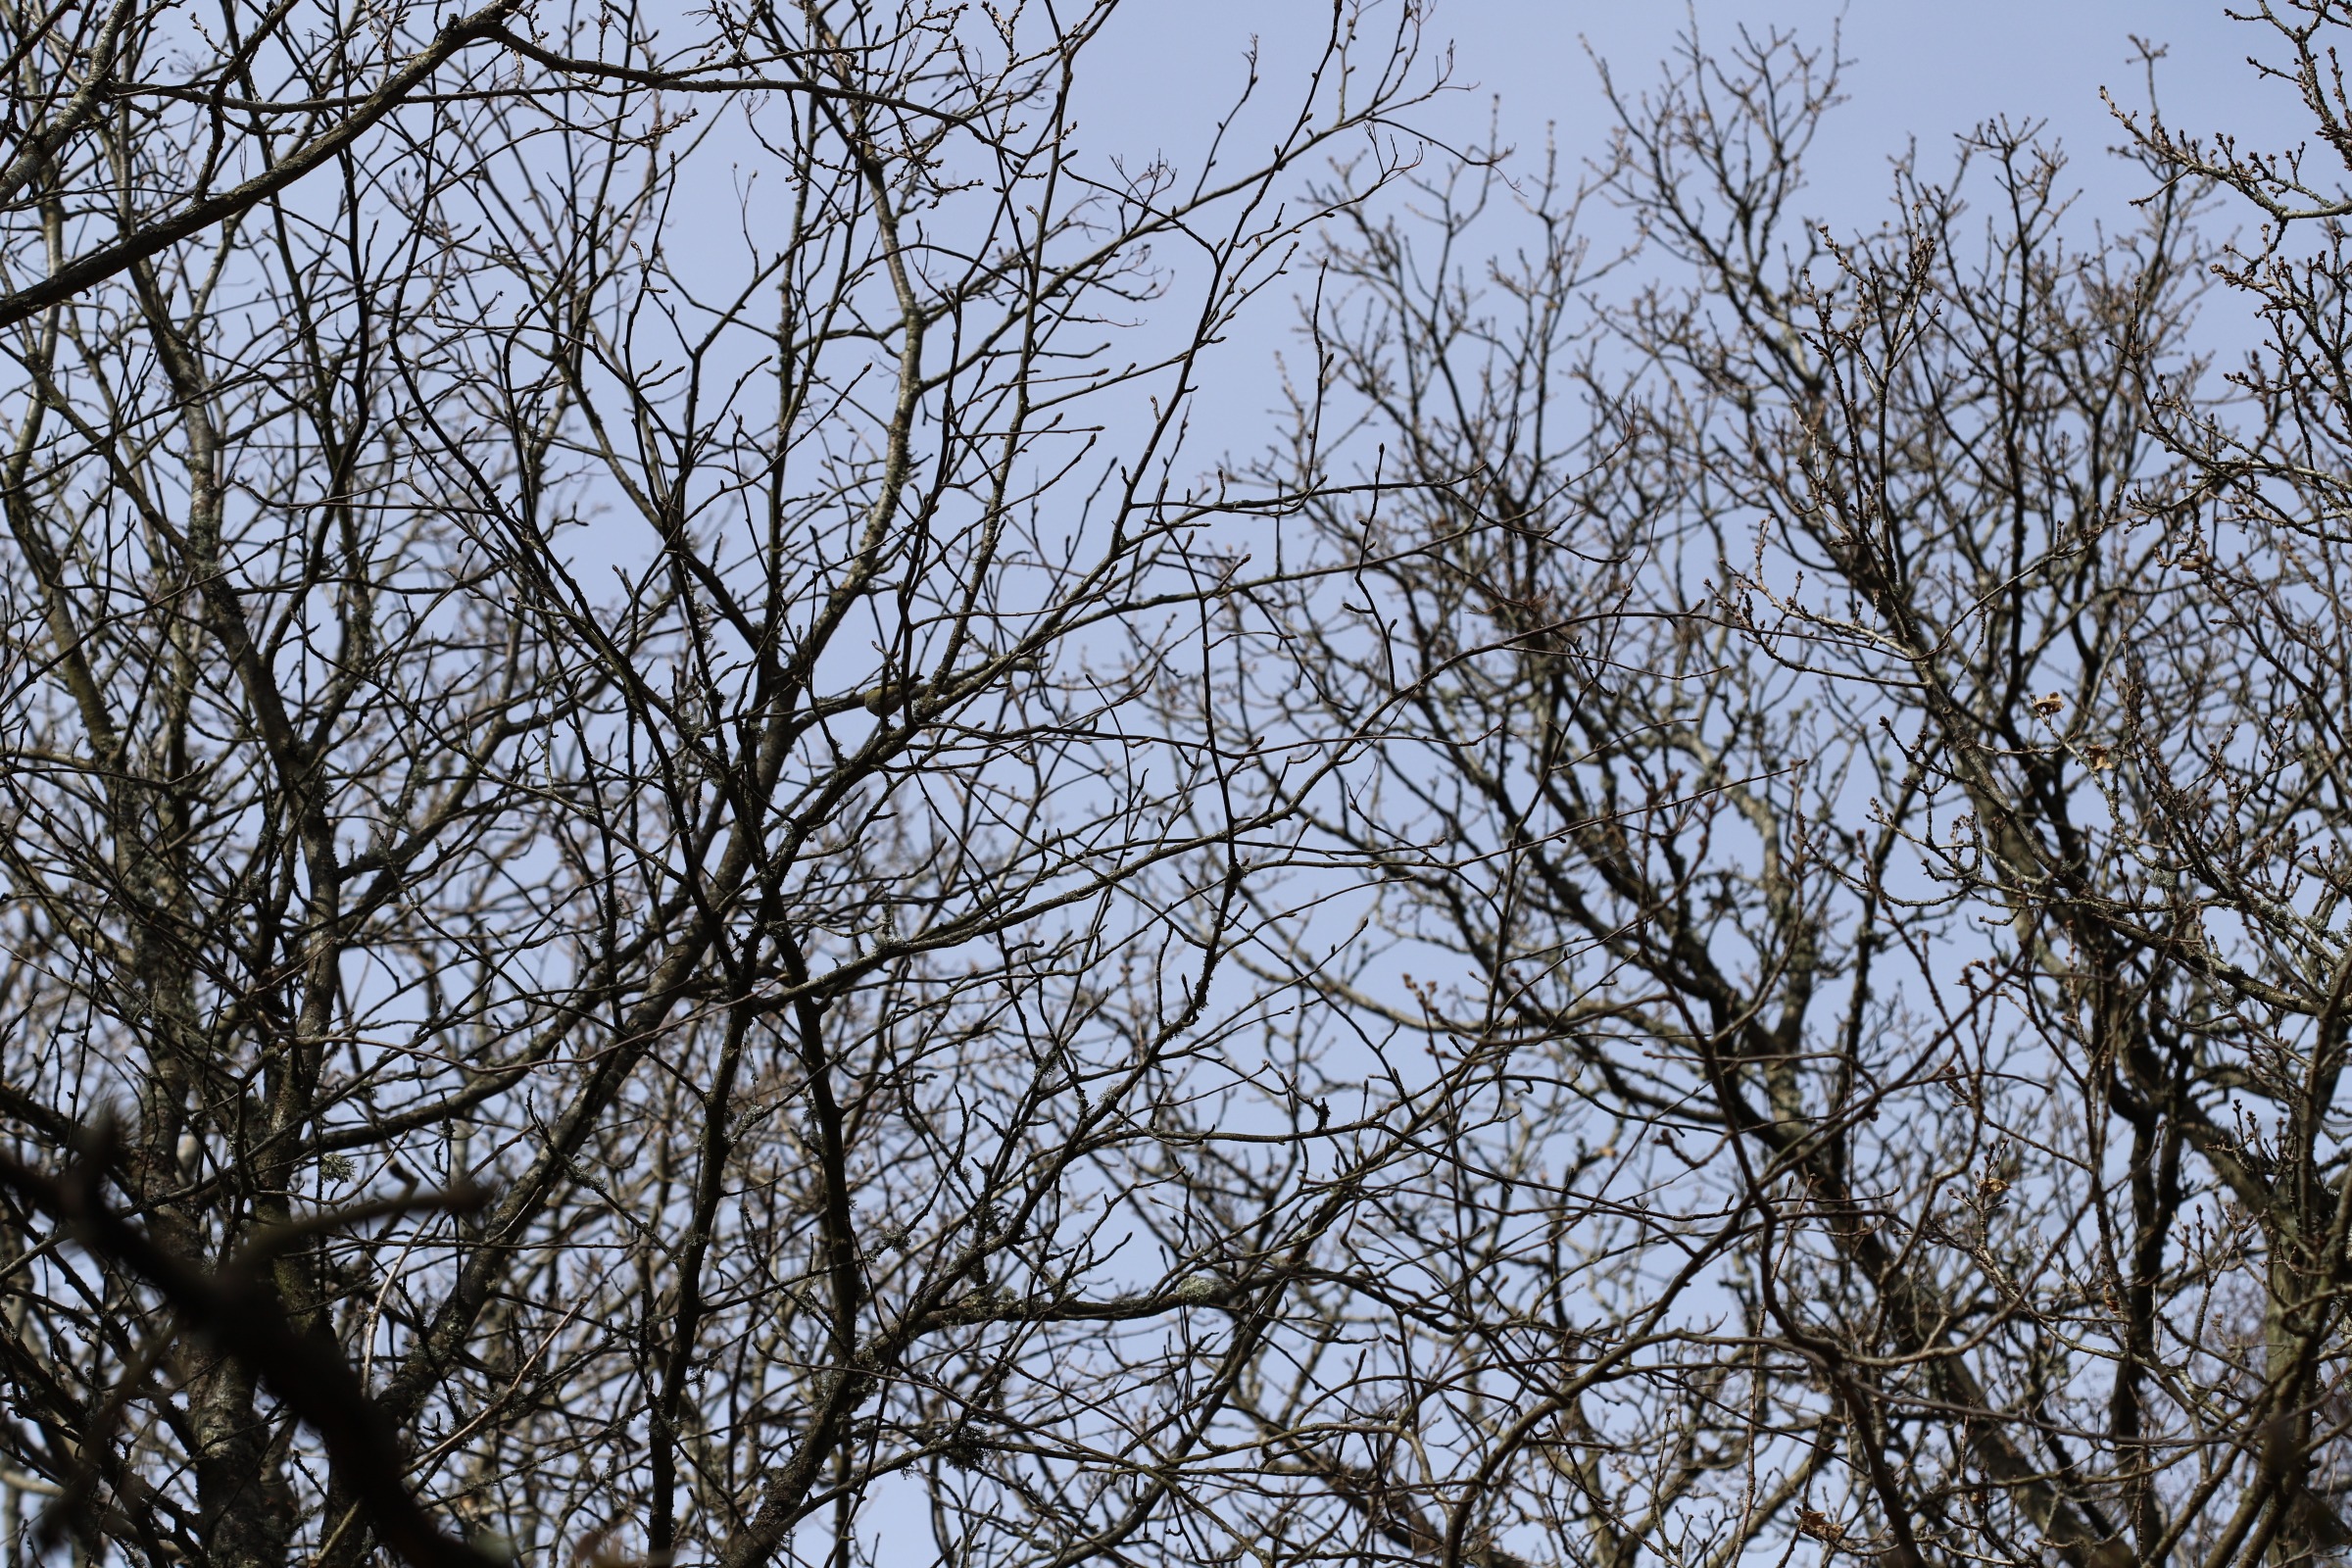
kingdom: Animalia
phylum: Chordata
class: Aves
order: Passeriformes
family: Regulidae
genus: Regulus
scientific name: Regulus regulus
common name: Fuglekonge
